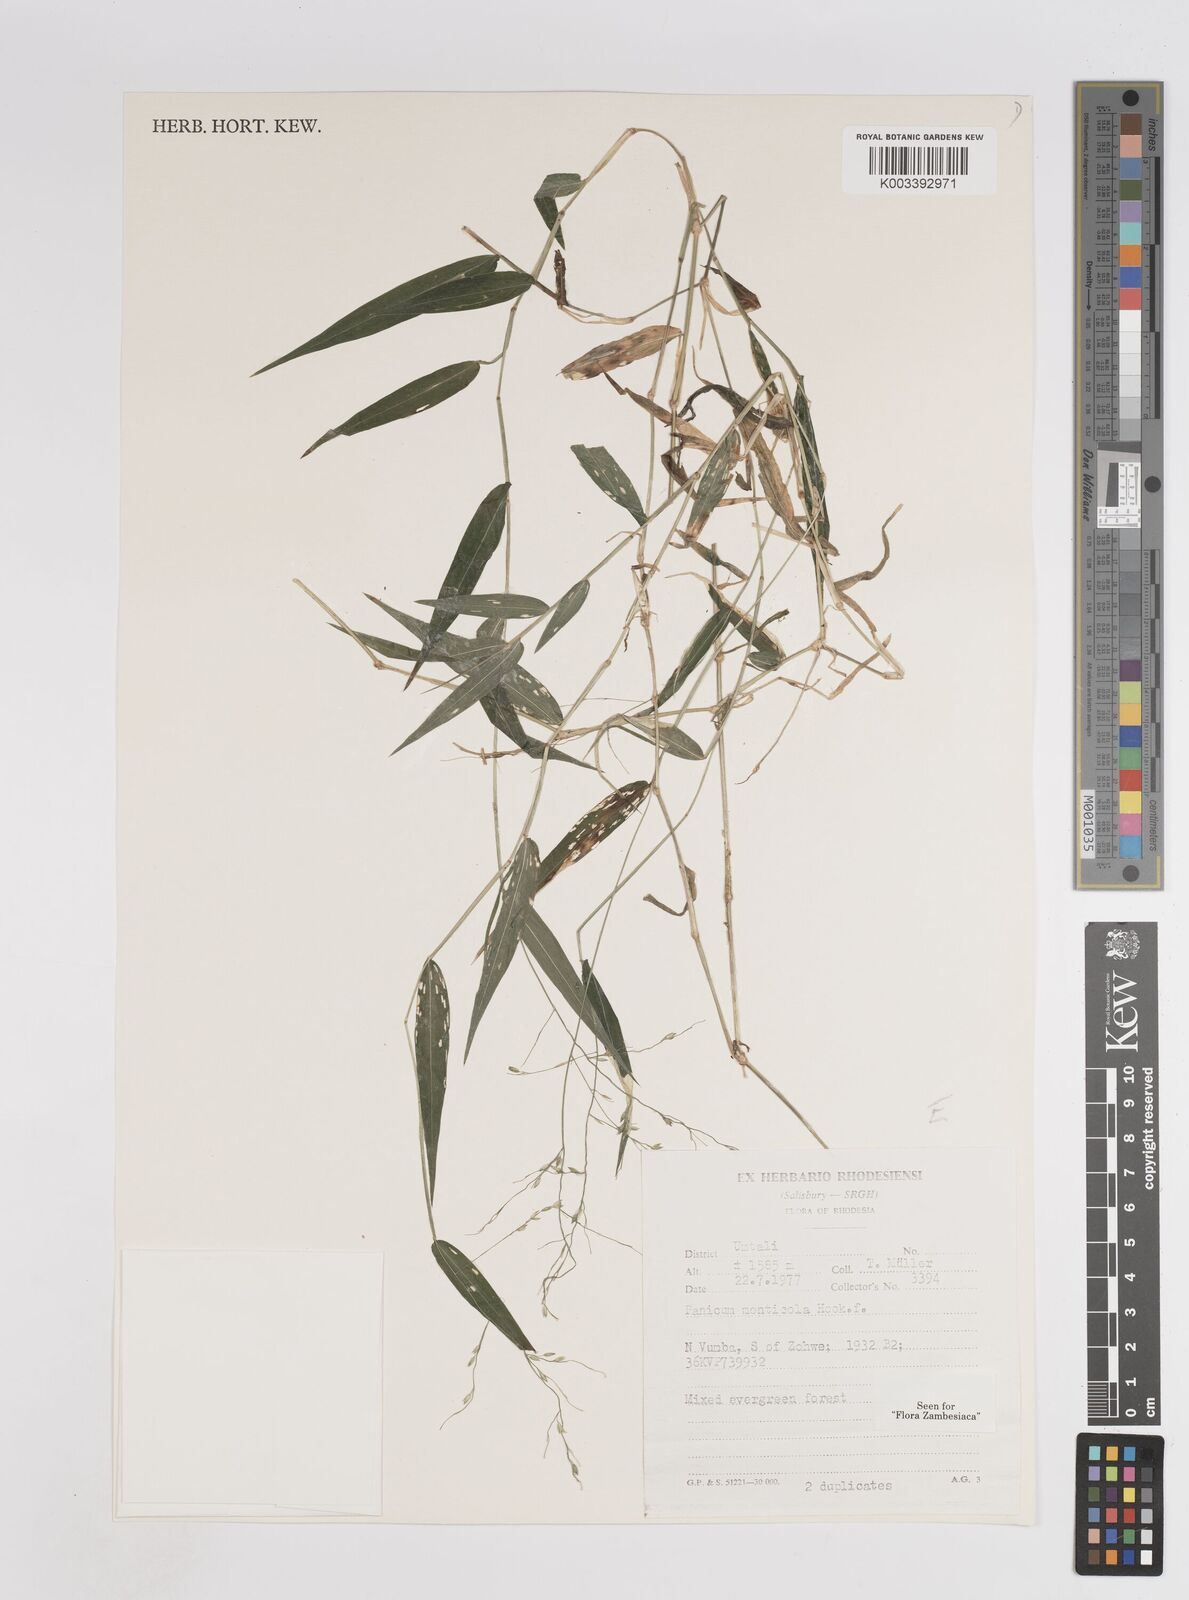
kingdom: Plantae
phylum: Tracheophyta
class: Liliopsida
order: Poales
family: Poaceae
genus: Panicum
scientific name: Panicum monticola
